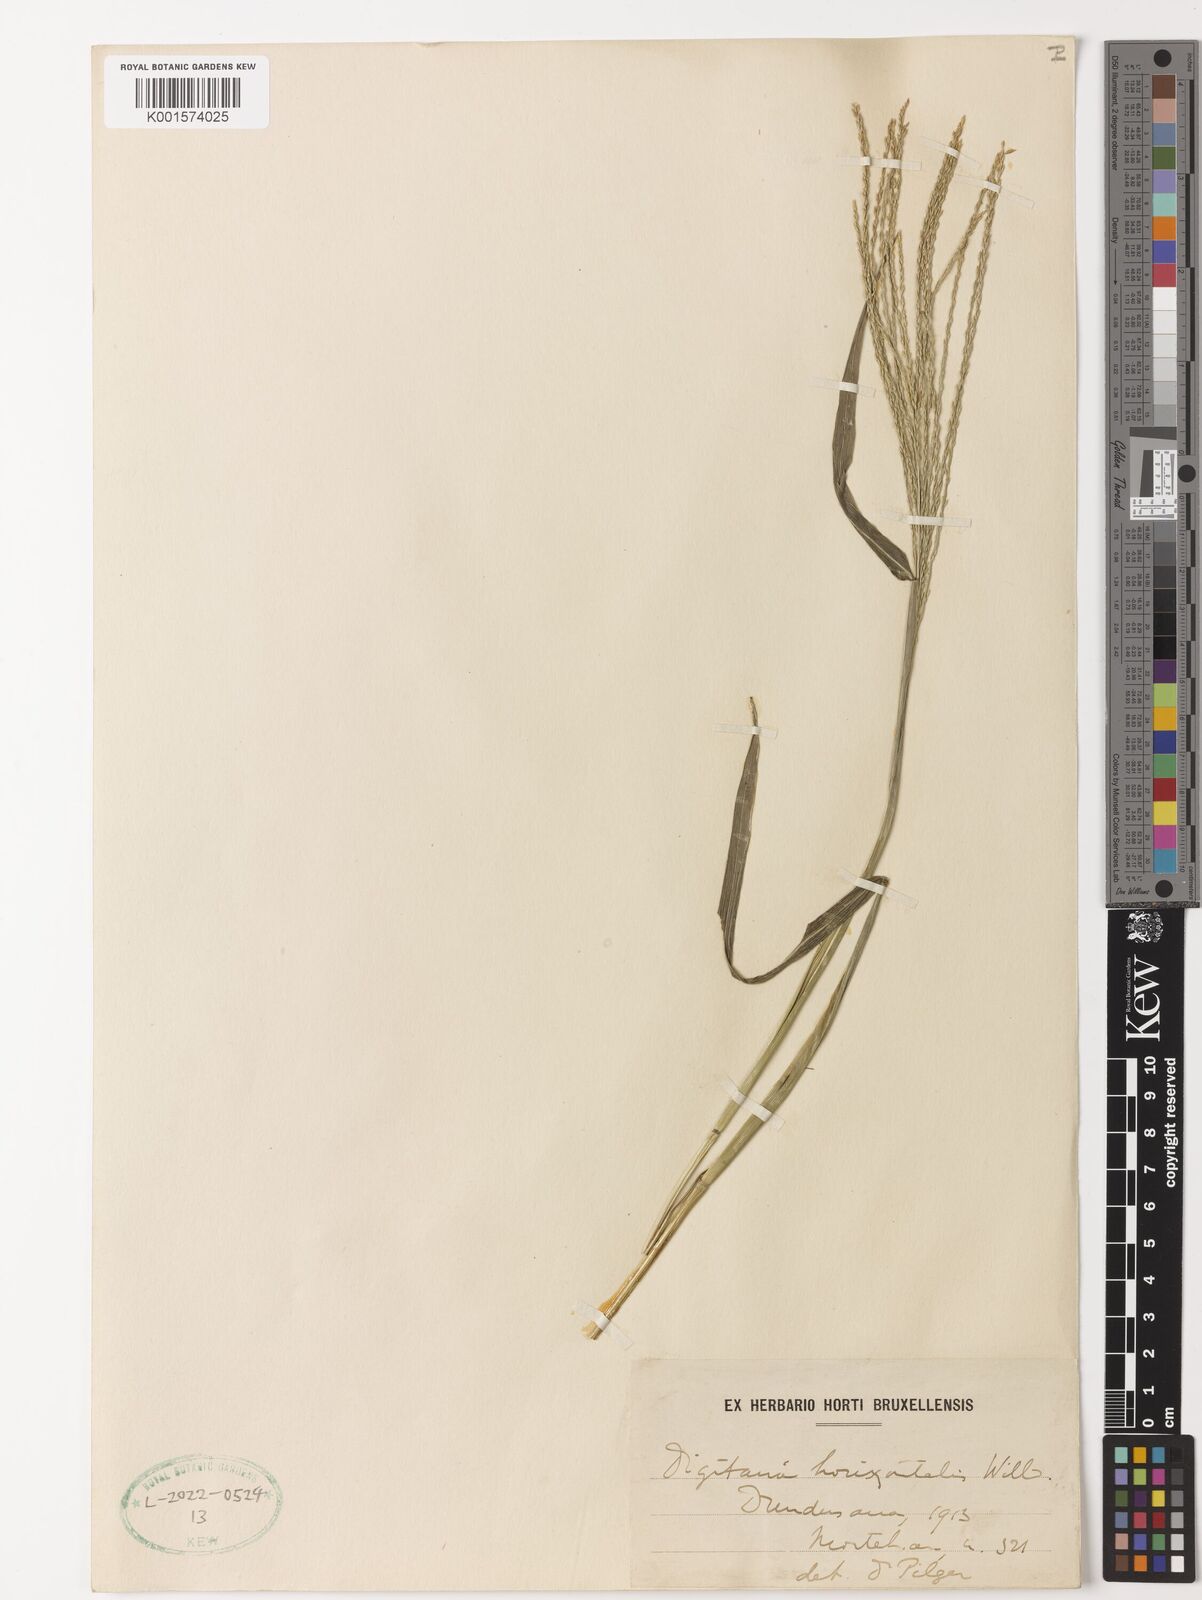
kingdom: Plantae
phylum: Tracheophyta
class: Liliopsida
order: Poales
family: Poaceae
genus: Digitaria
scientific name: Digitaria horizontalis
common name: Jamaican crabgrass
